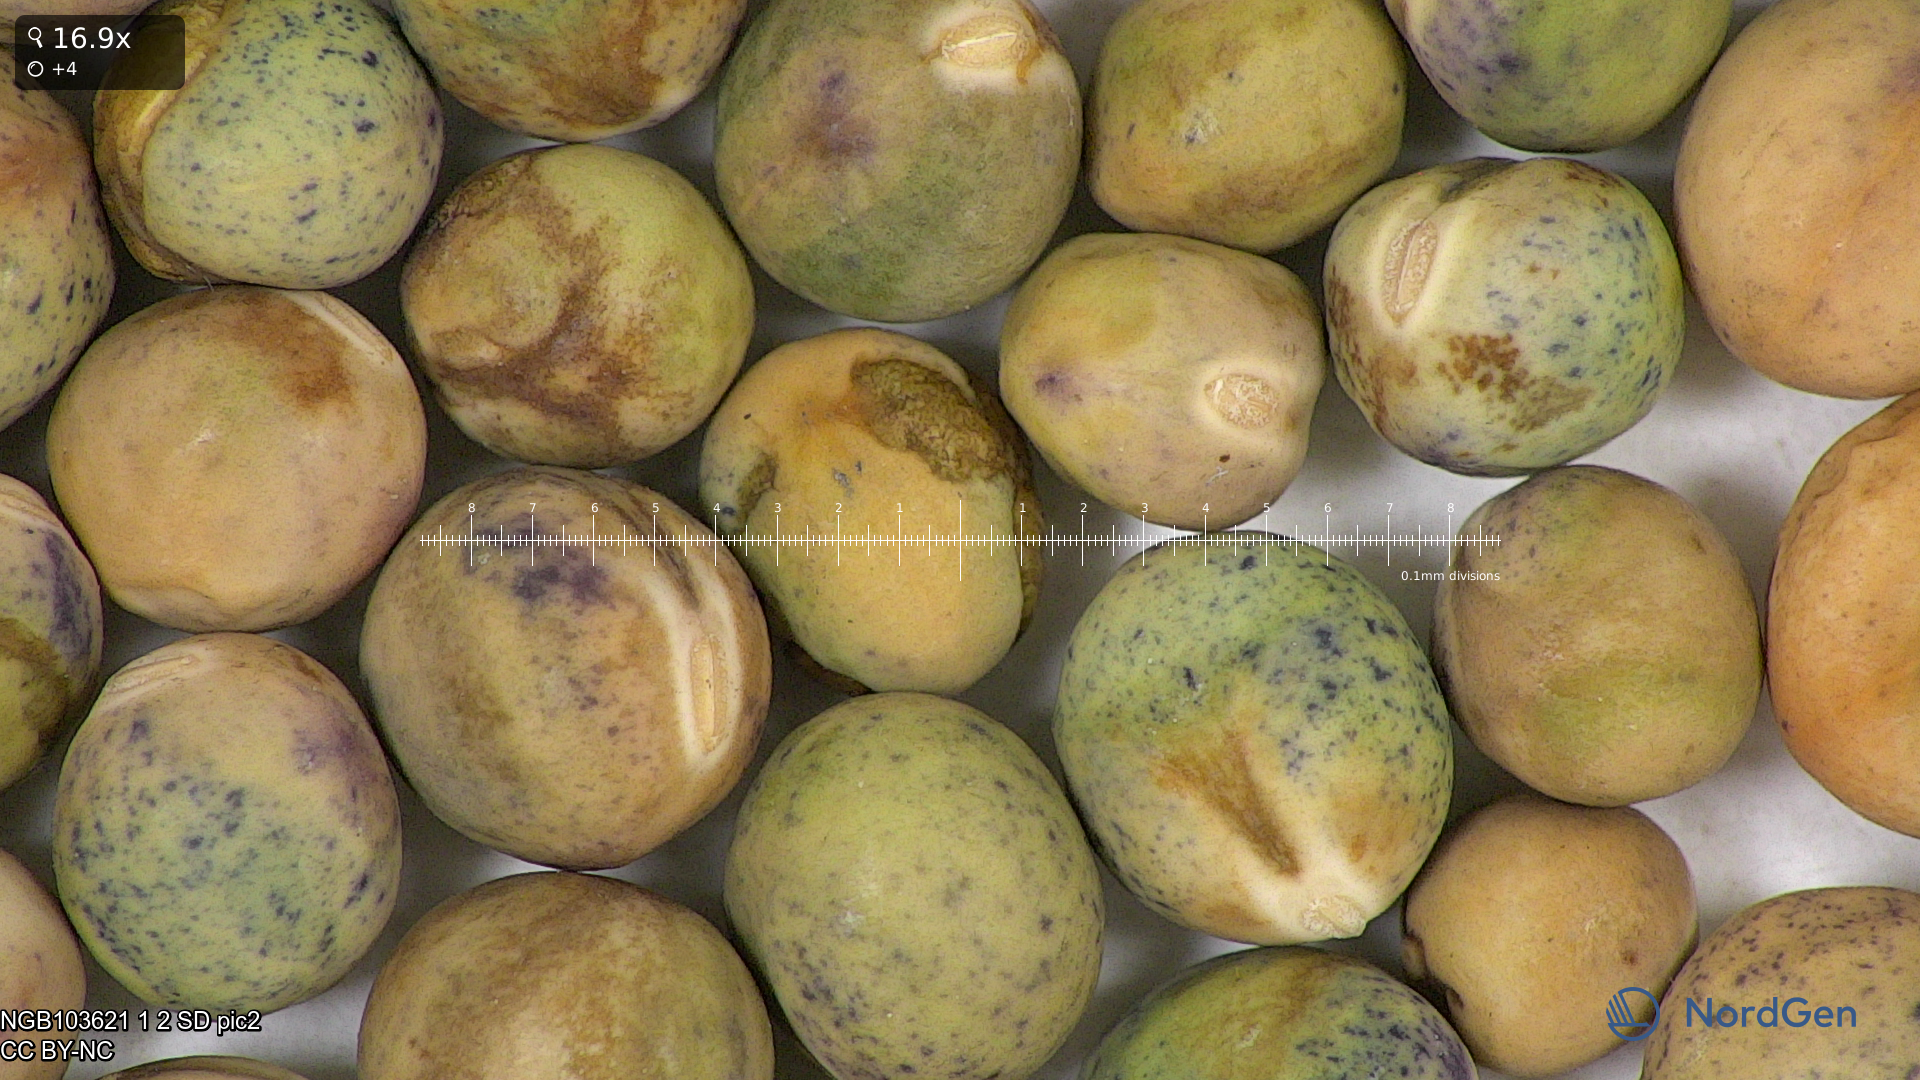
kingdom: Plantae
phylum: Tracheophyta
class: Magnoliopsida
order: Fabales
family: Fabaceae
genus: Lathyrus
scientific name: Lathyrus oleraceus
